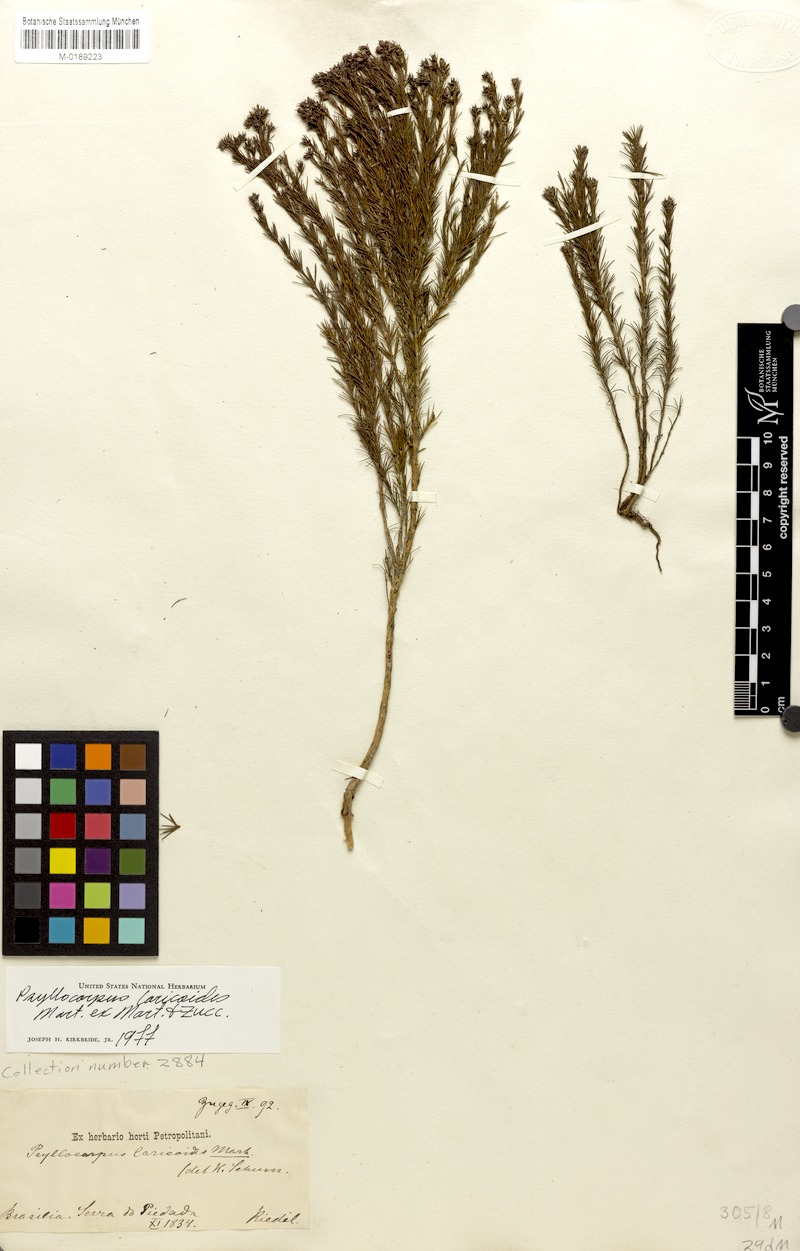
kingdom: Plantae
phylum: Tracheophyta
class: Magnoliopsida
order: Gentianales
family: Rubiaceae
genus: Psyllocarpus
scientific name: Psyllocarpus laricoides
